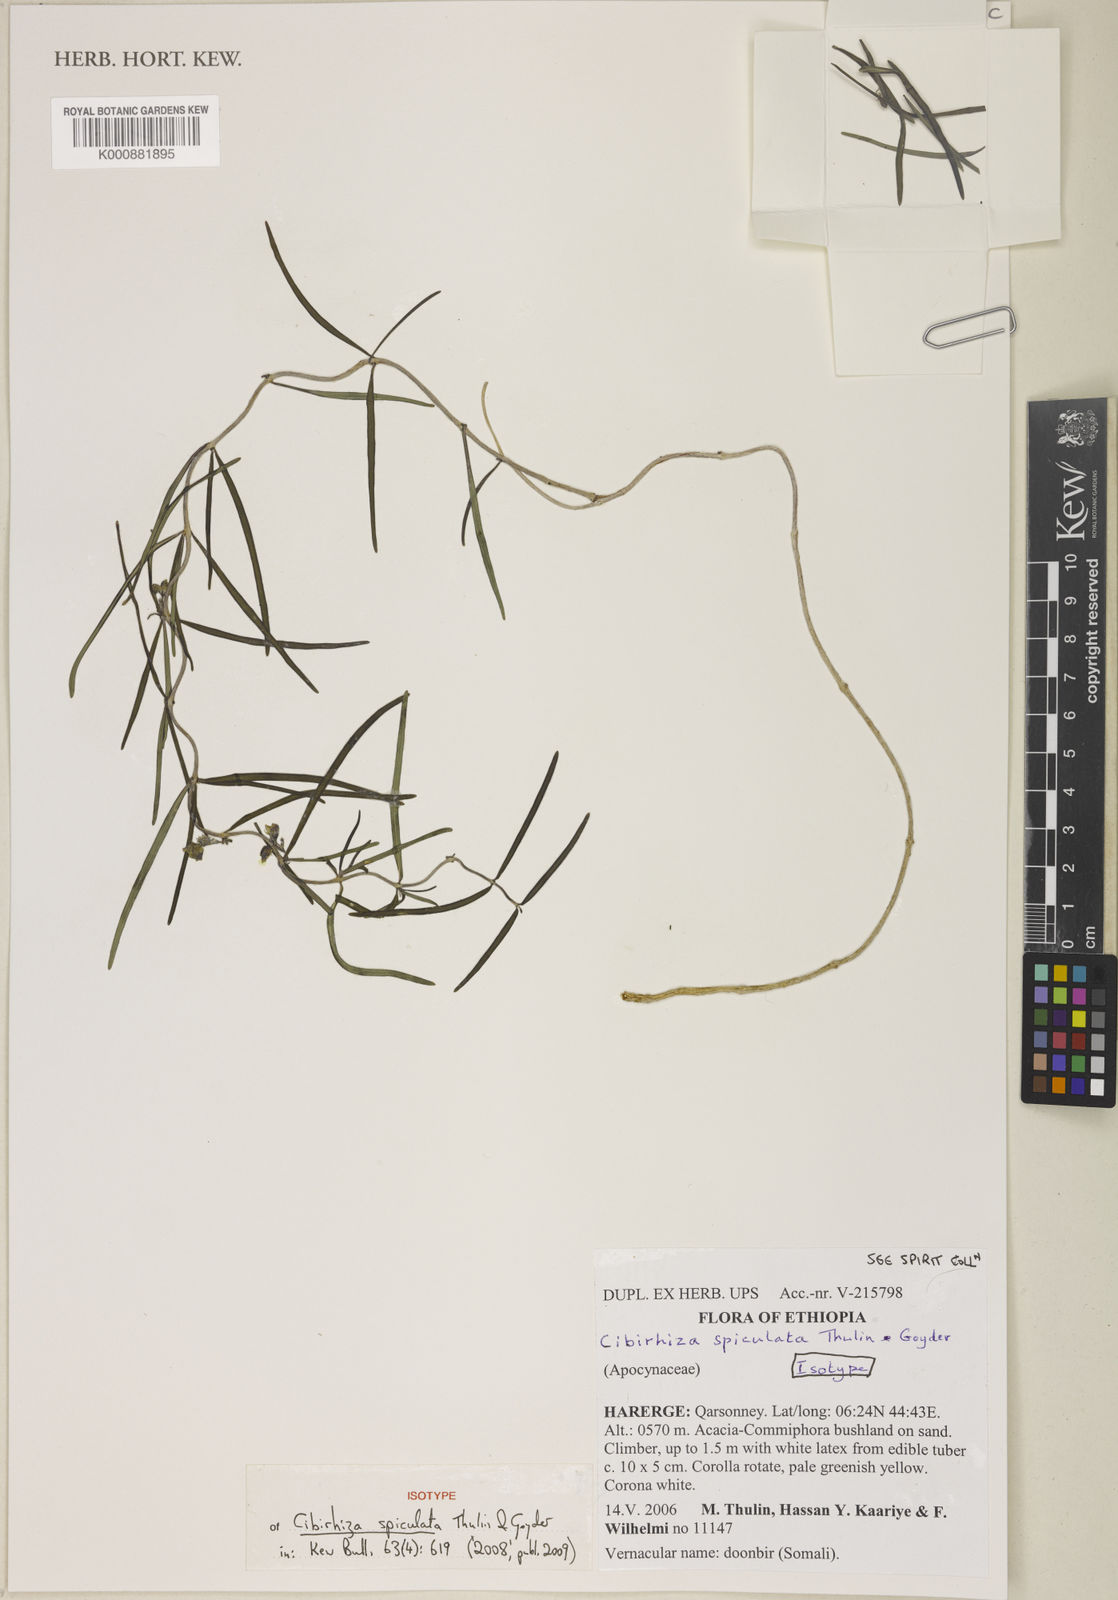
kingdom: Plantae
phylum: Tracheophyta
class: Magnoliopsida
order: Gentianales
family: Apocynaceae
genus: Cibirhiza
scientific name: Cibirhiza spiculata
